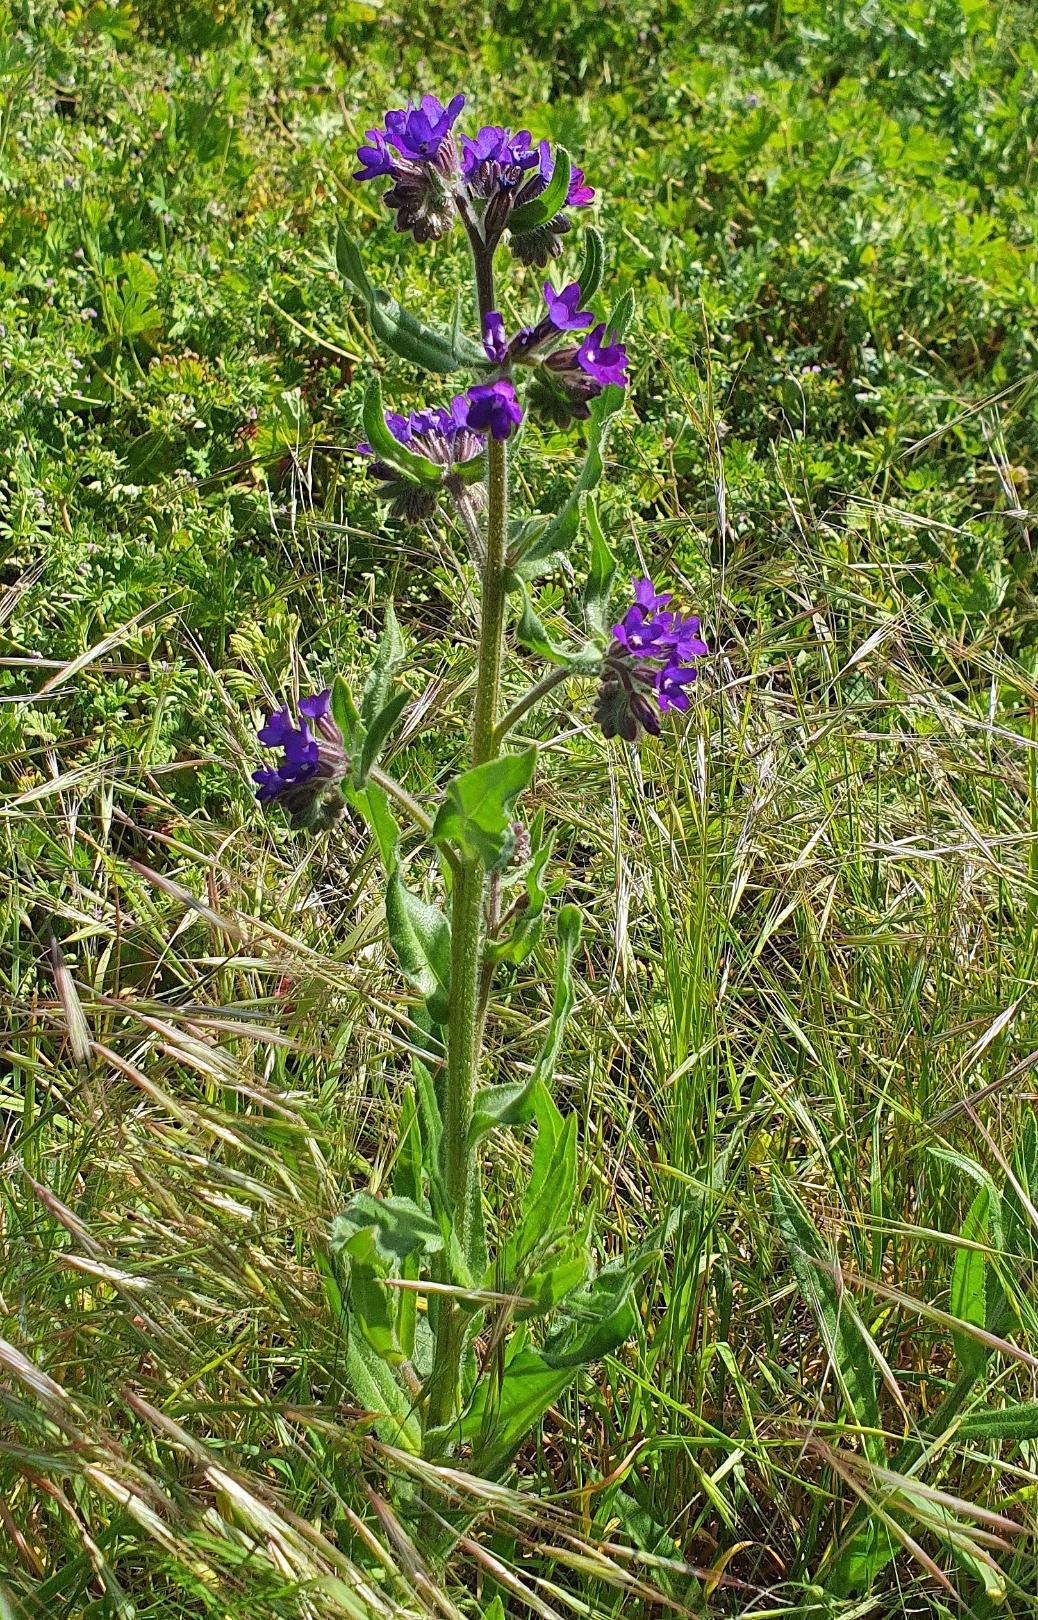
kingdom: Plantae
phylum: Tracheophyta
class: Magnoliopsida
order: Boraginales
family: Boraginaceae
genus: Anchusa
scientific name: Anchusa officinalis
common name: Læge-oksetunge
